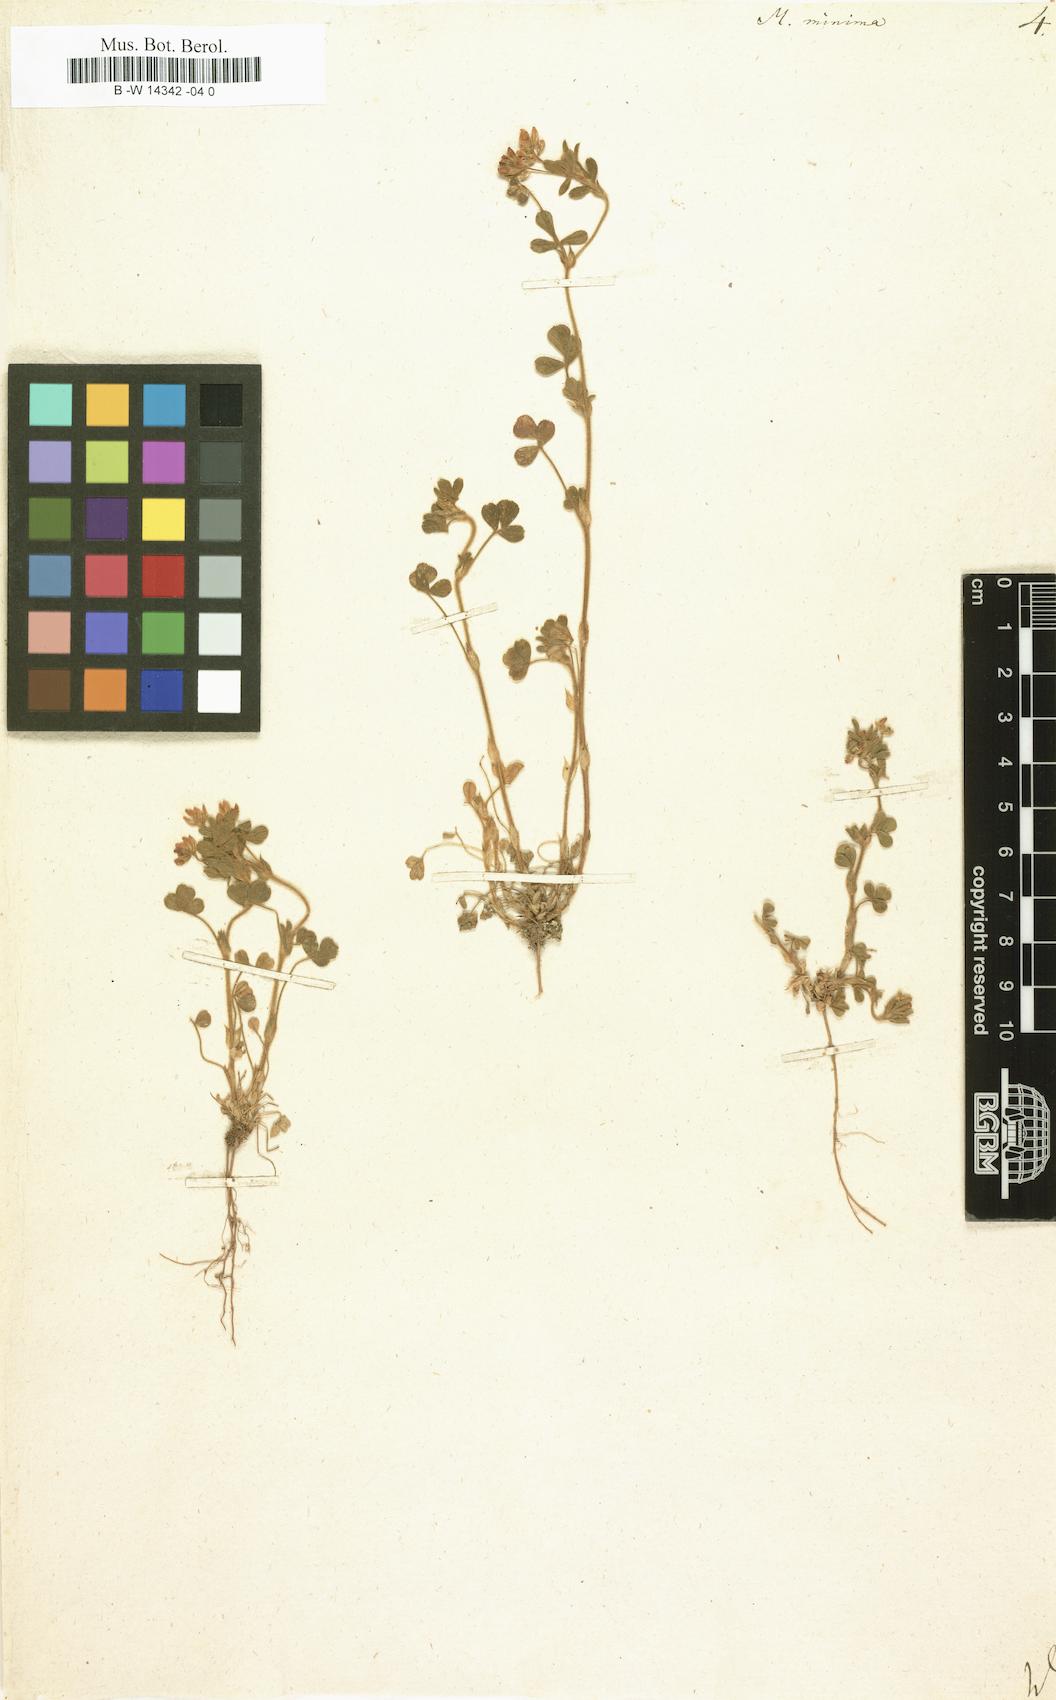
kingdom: Plantae
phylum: Tracheophyta
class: Magnoliopsida
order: Fabales
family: Fabaceae
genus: Medicago
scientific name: Medicago minima
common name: Little bur-clover
